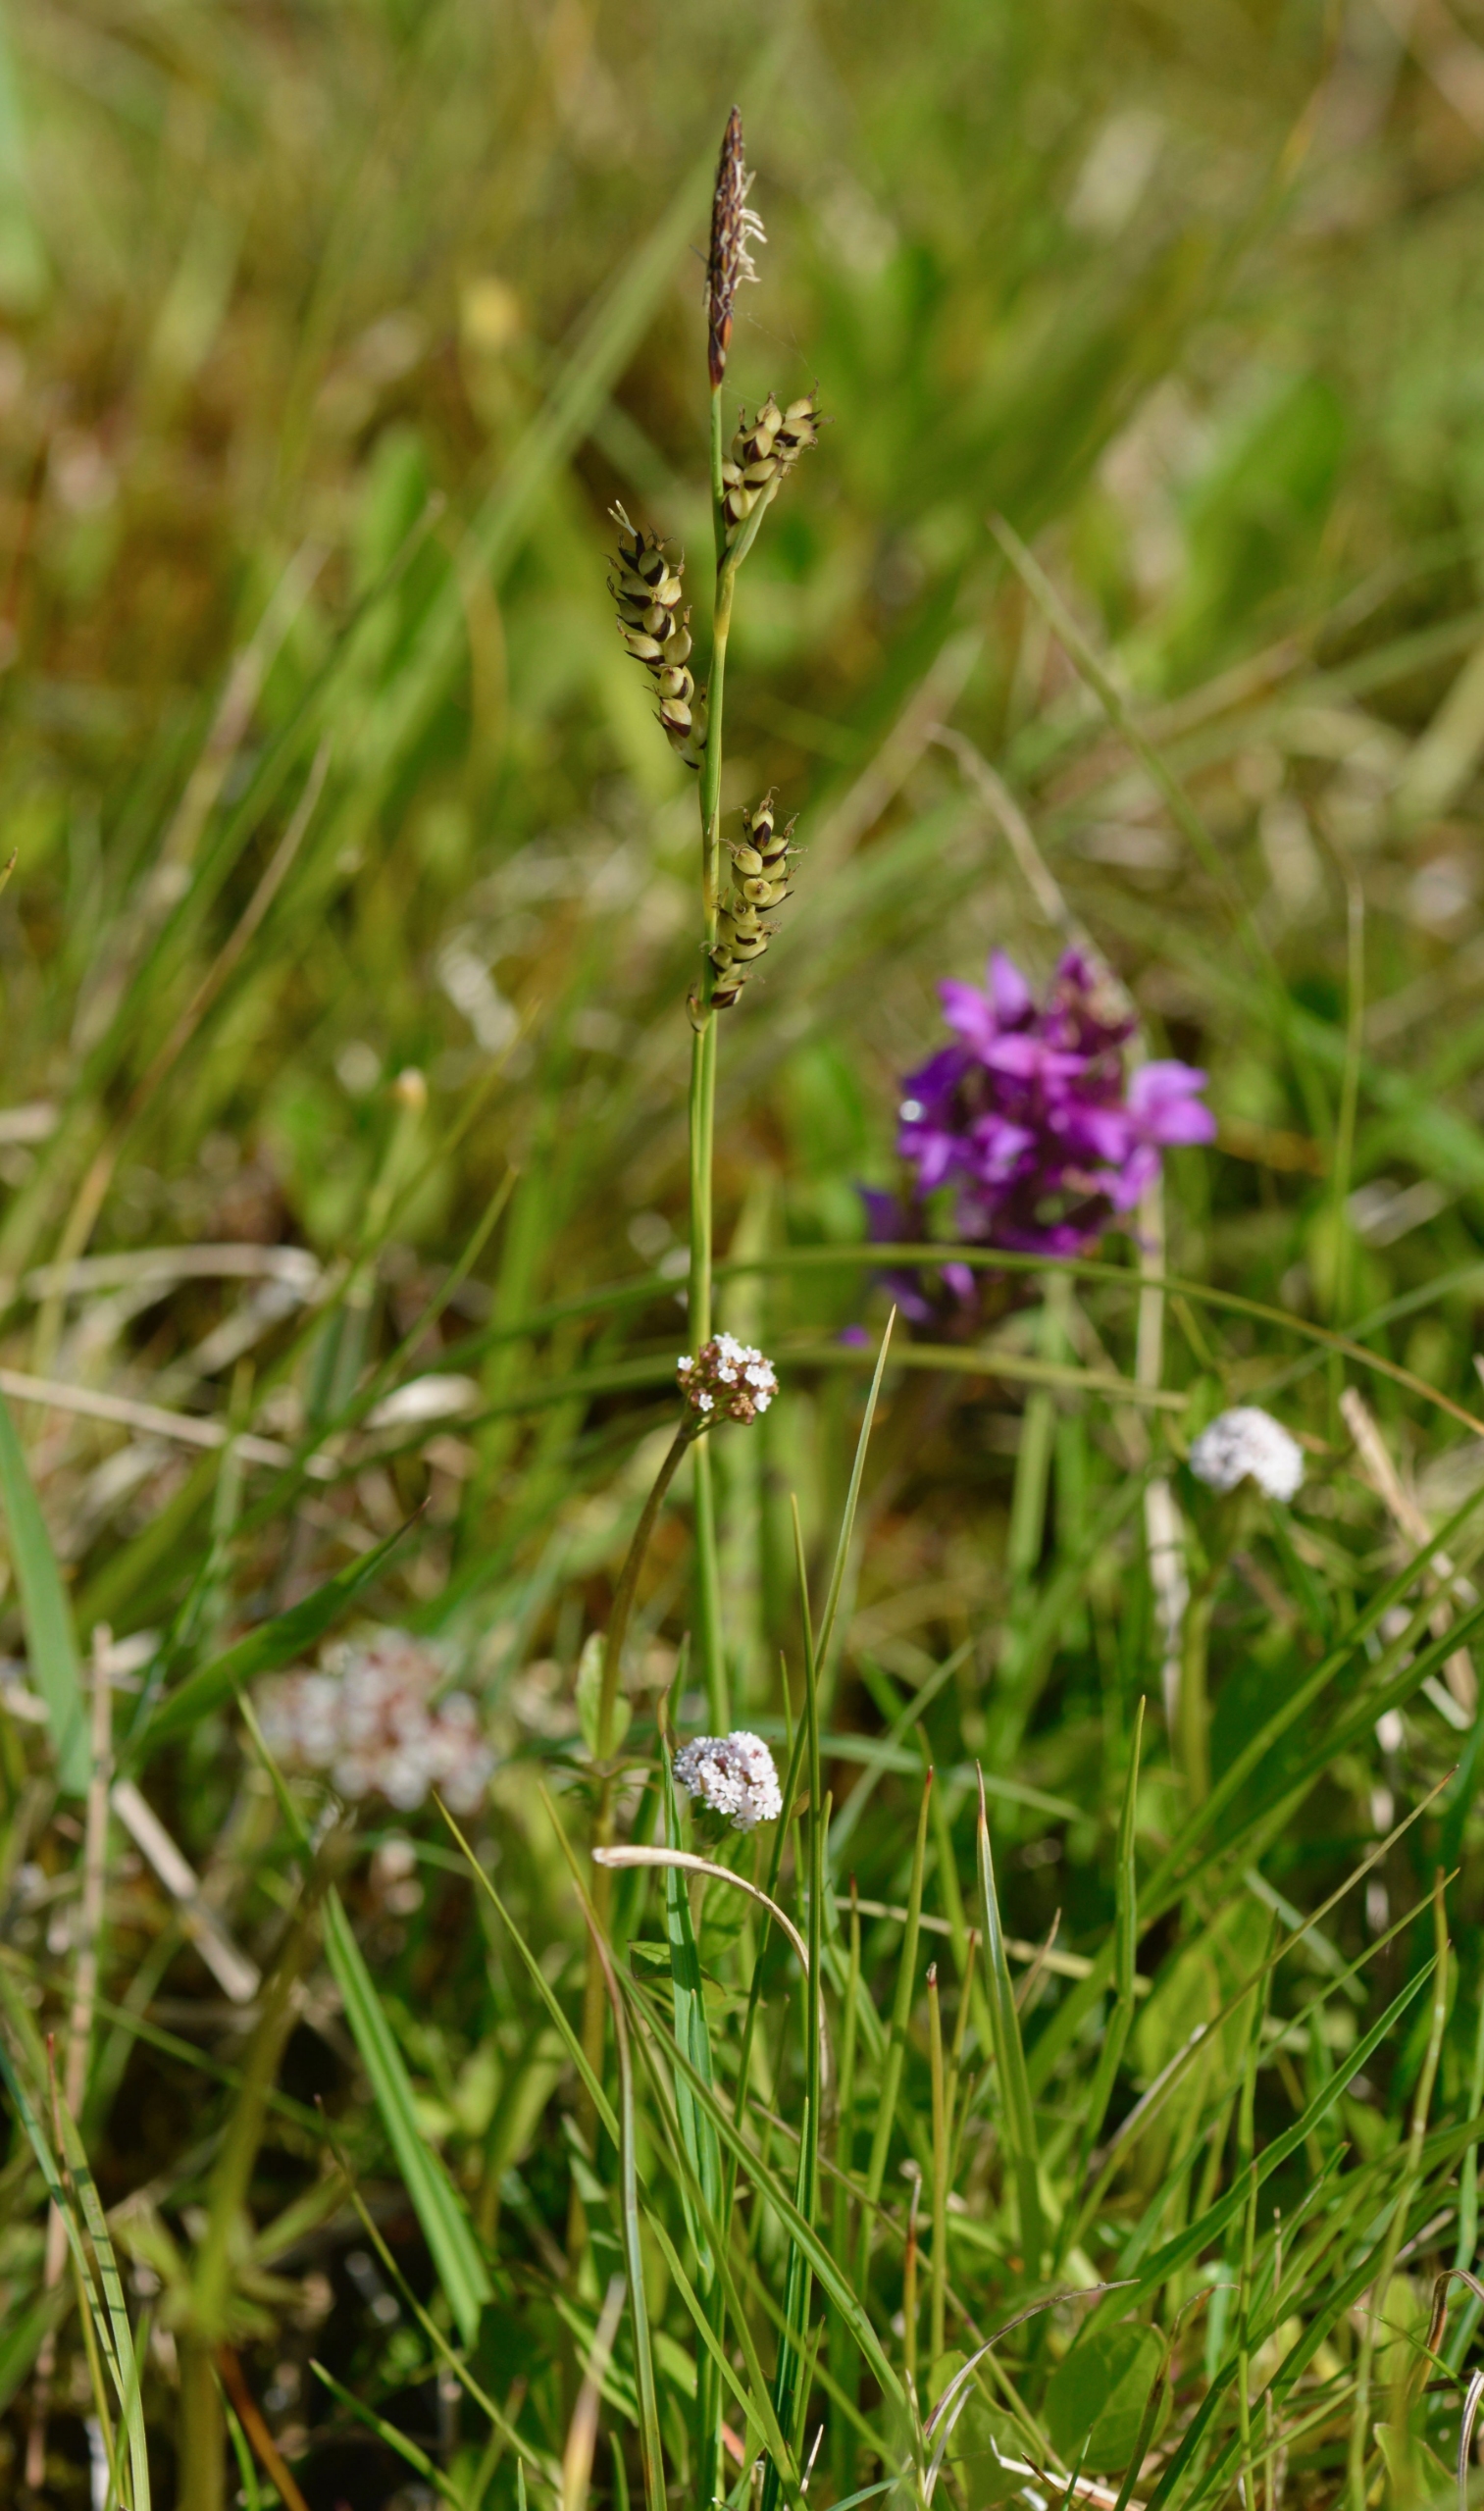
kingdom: Plantae
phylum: Tracheophyta
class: Liliopsida
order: Poales
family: Cyperaceae
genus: Carex
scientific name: Carex panicea
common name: Hirse-star
